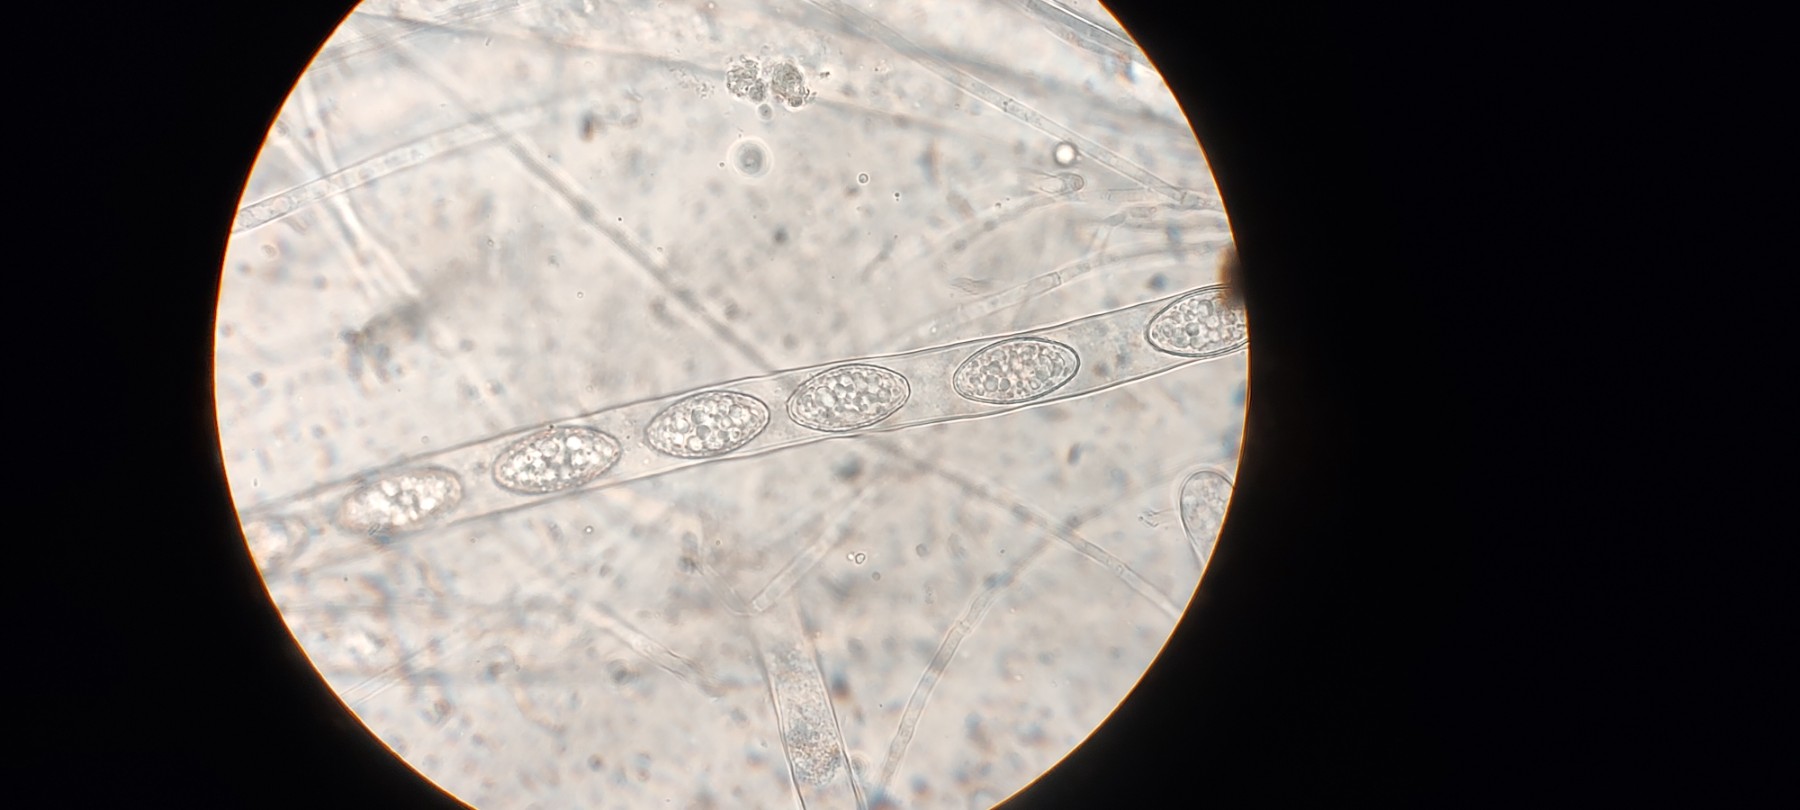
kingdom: Fungi
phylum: Ascomycota
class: Pezizomycetes
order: Pezizales
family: Pyronemataceae
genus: Trichophaea
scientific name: Trichophaea gregaria
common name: tensporet børstebæger
